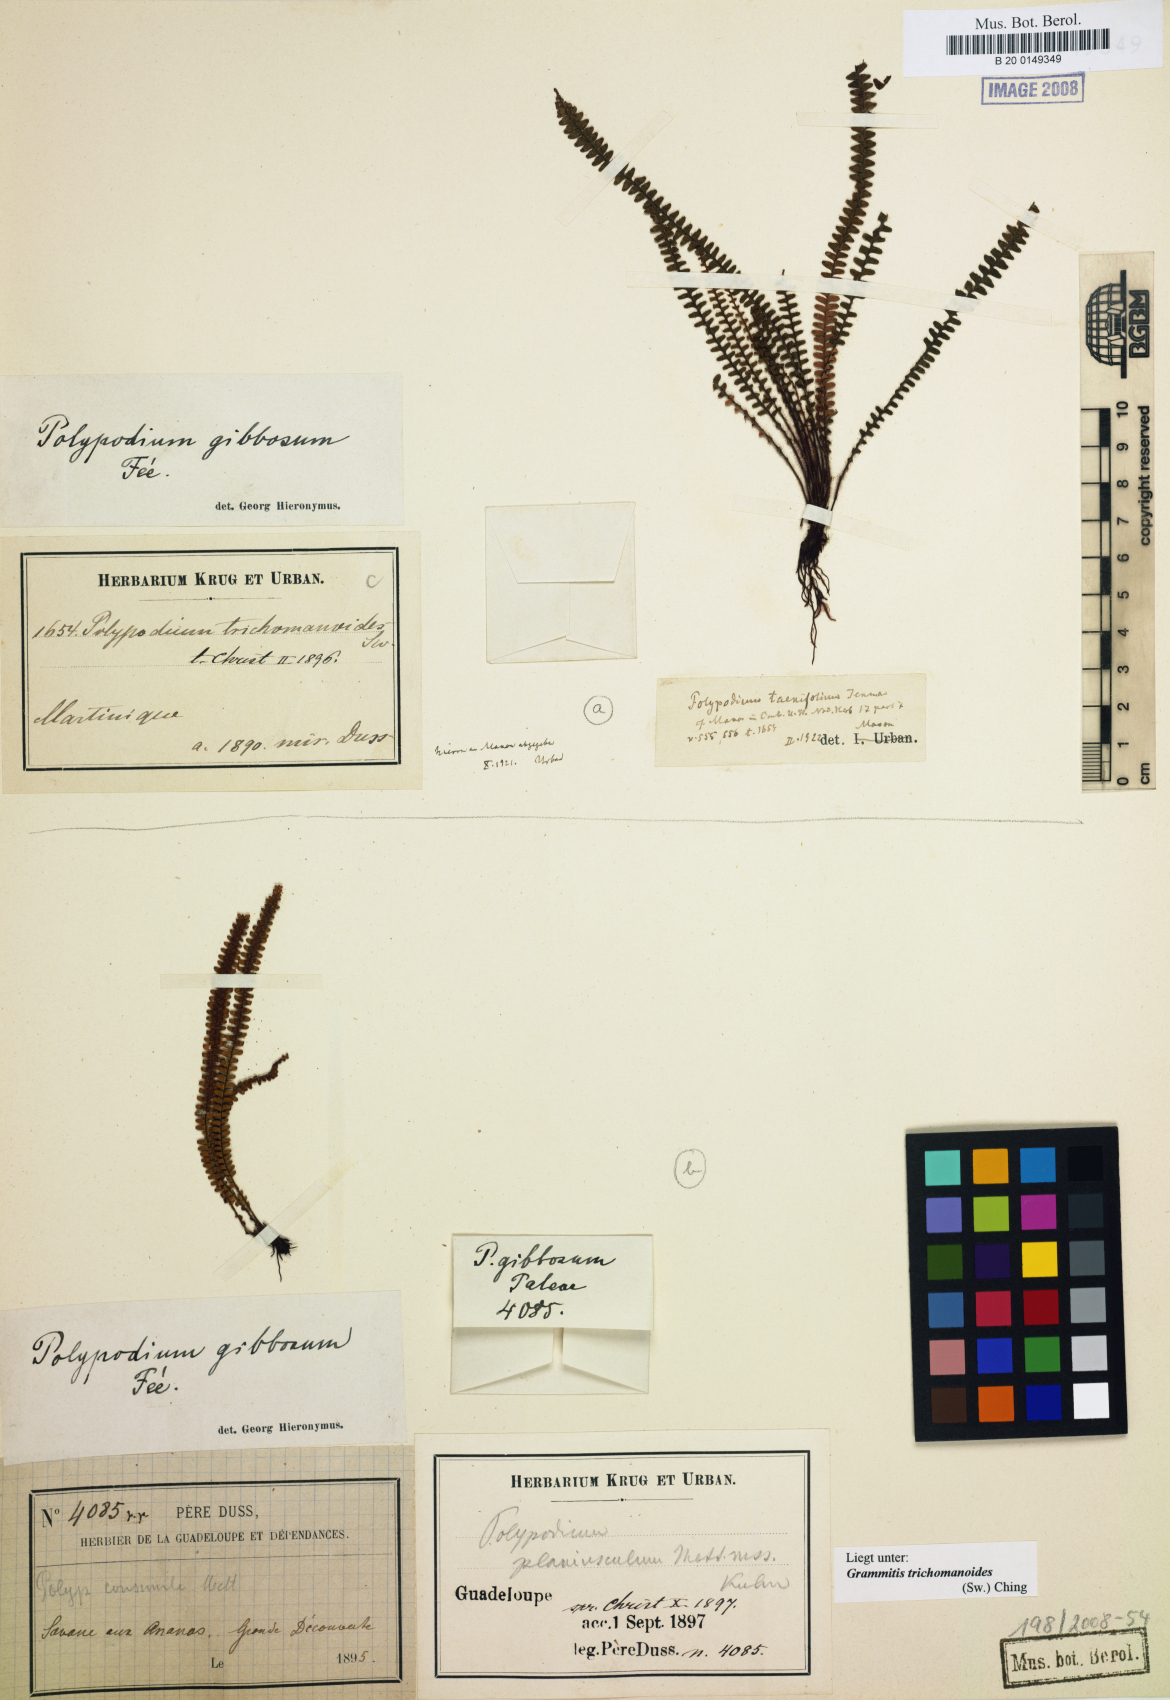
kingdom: Plantae
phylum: Tracheophyta
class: Polypodiopsida
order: Polypodiales
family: Polypodiaceae
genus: Moranopteris
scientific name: Moranopteris taenifolia
